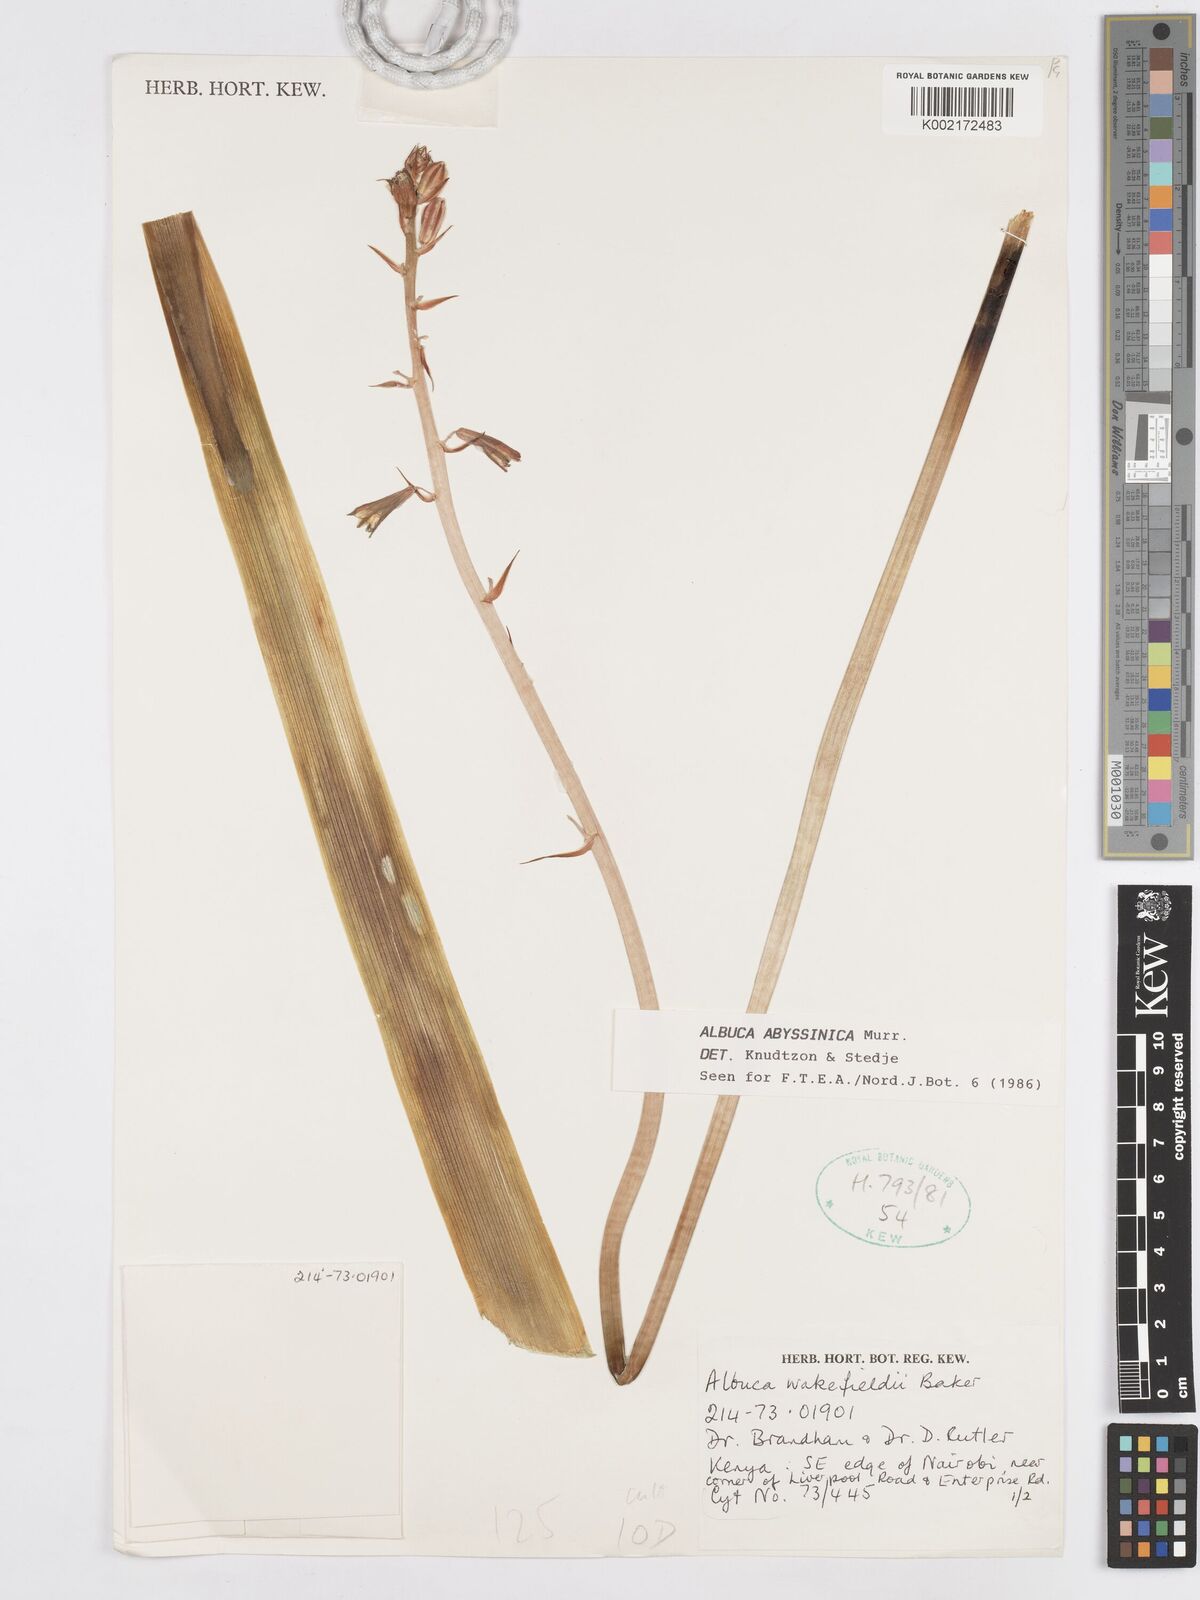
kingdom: Plantae
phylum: Tracheophyta
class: Liliopsida
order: Asparagales
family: Asparagaceae
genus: Albuca
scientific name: Albuca abyssinica
